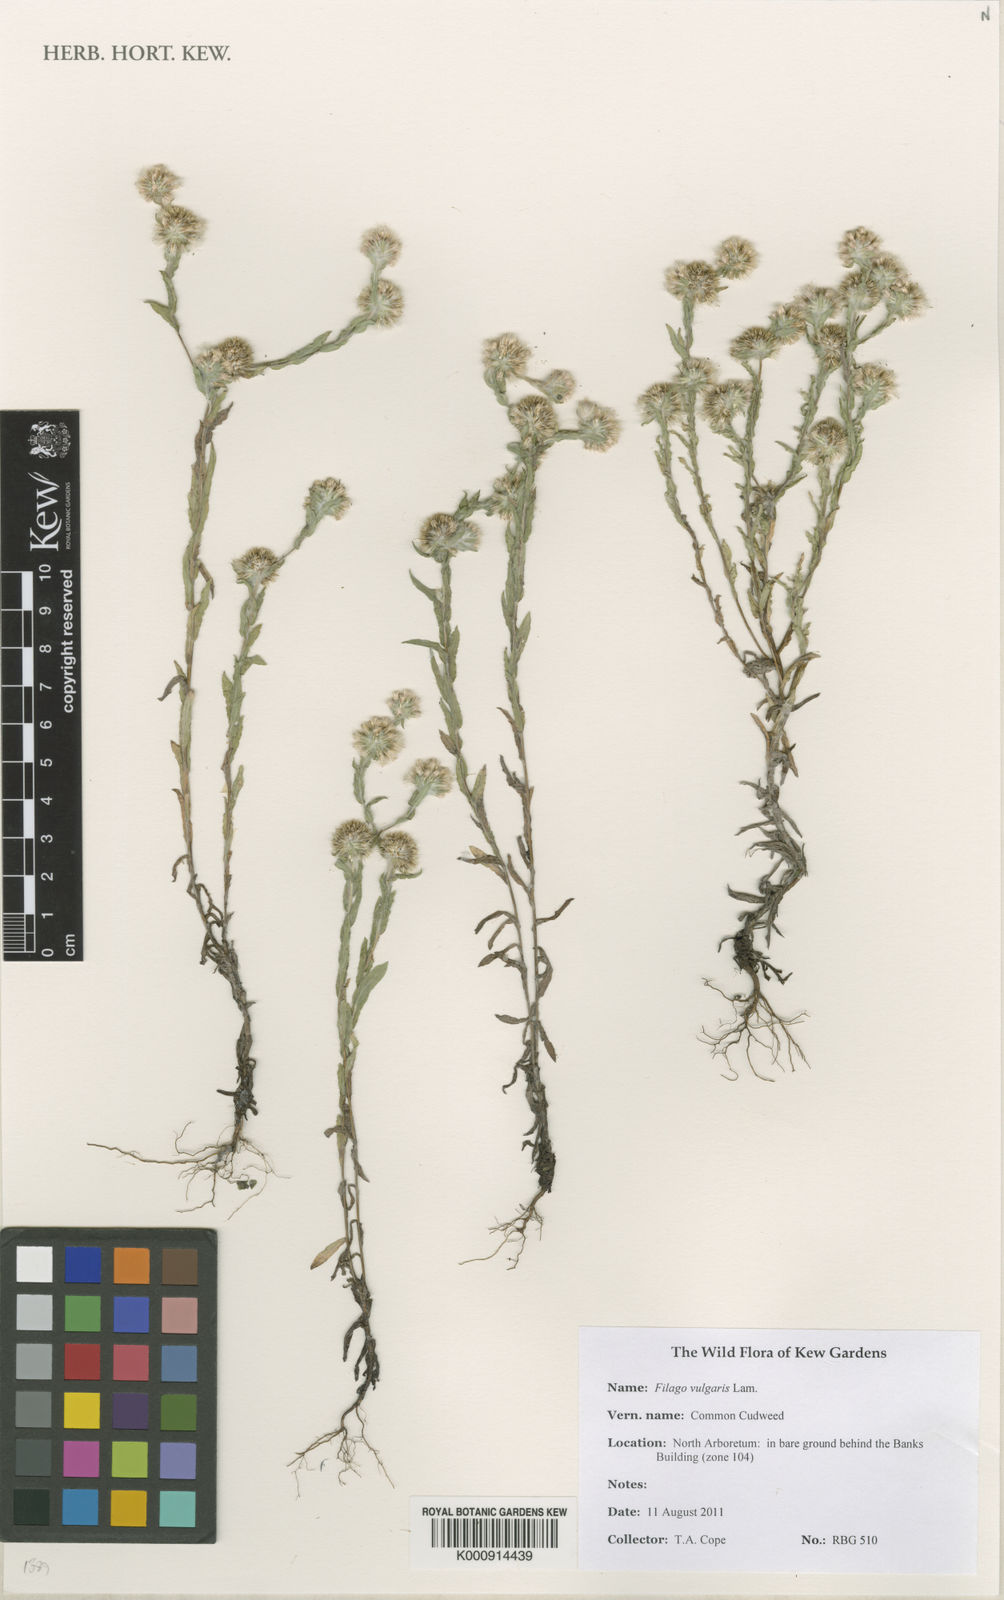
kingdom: Plantae
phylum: Tracheophyta
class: Magnoliopsida
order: Asterales
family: Asteraceae
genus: Filago
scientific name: Filago germanica
